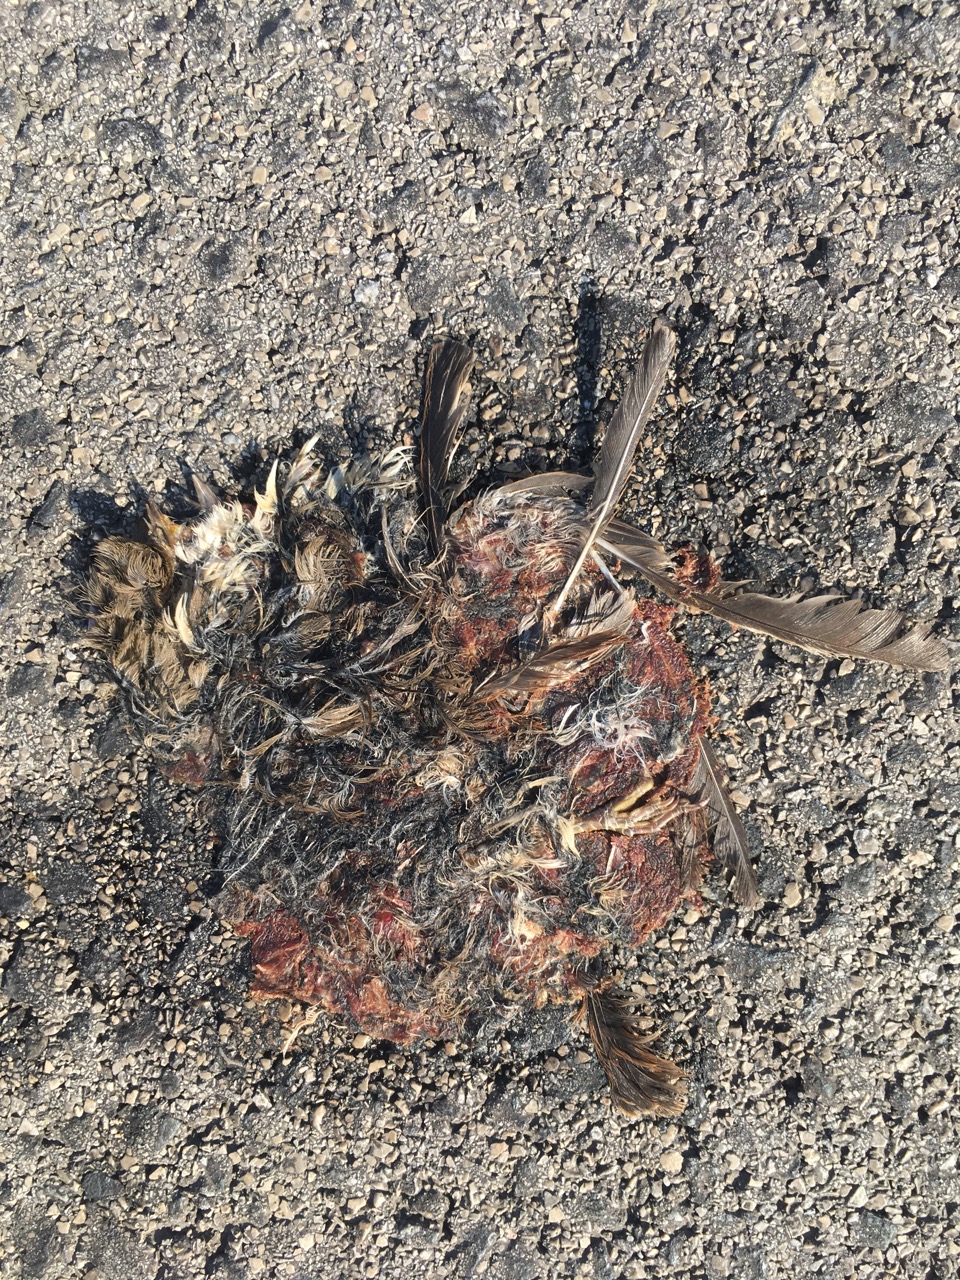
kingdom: Animalia
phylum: Chordata
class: Aves
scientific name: Aves
